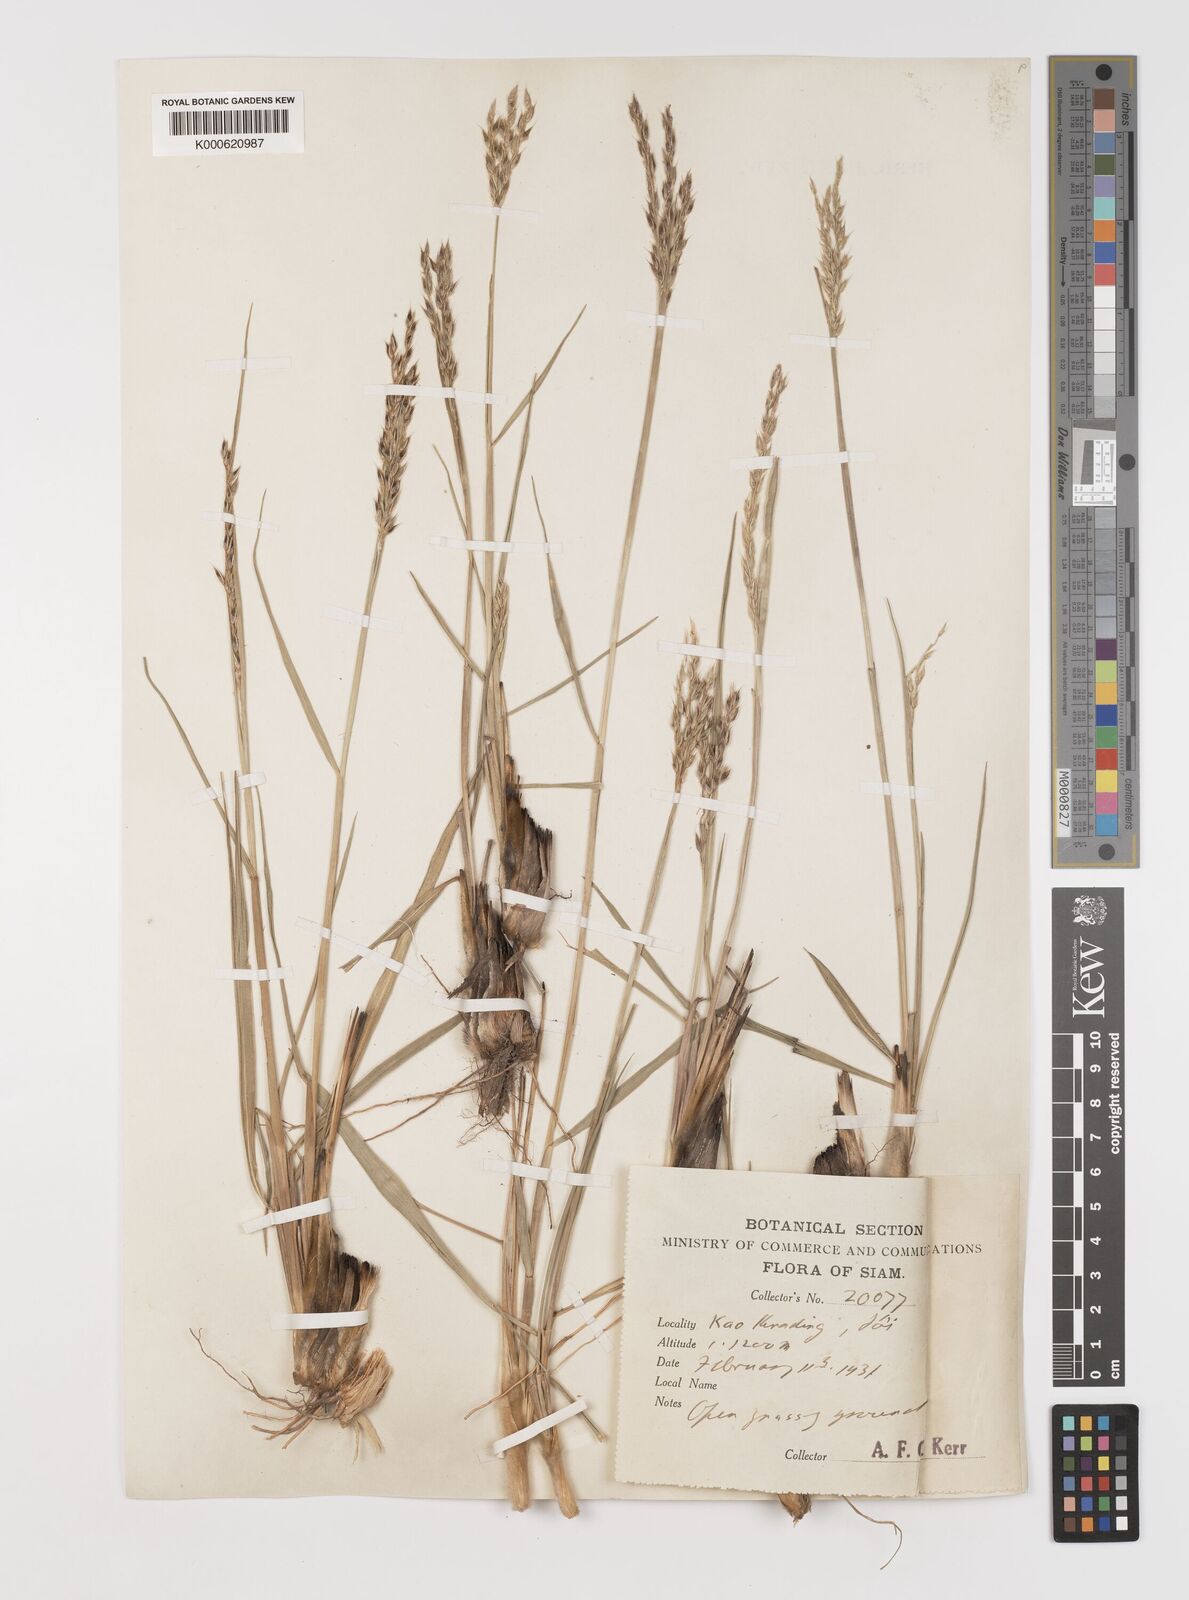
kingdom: Plantae
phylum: Tracheophyta
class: Liliopsida
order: Poales
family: Poaceae
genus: Alloteropsis
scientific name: Alloteropsis semialata
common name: Cockatoo grass
